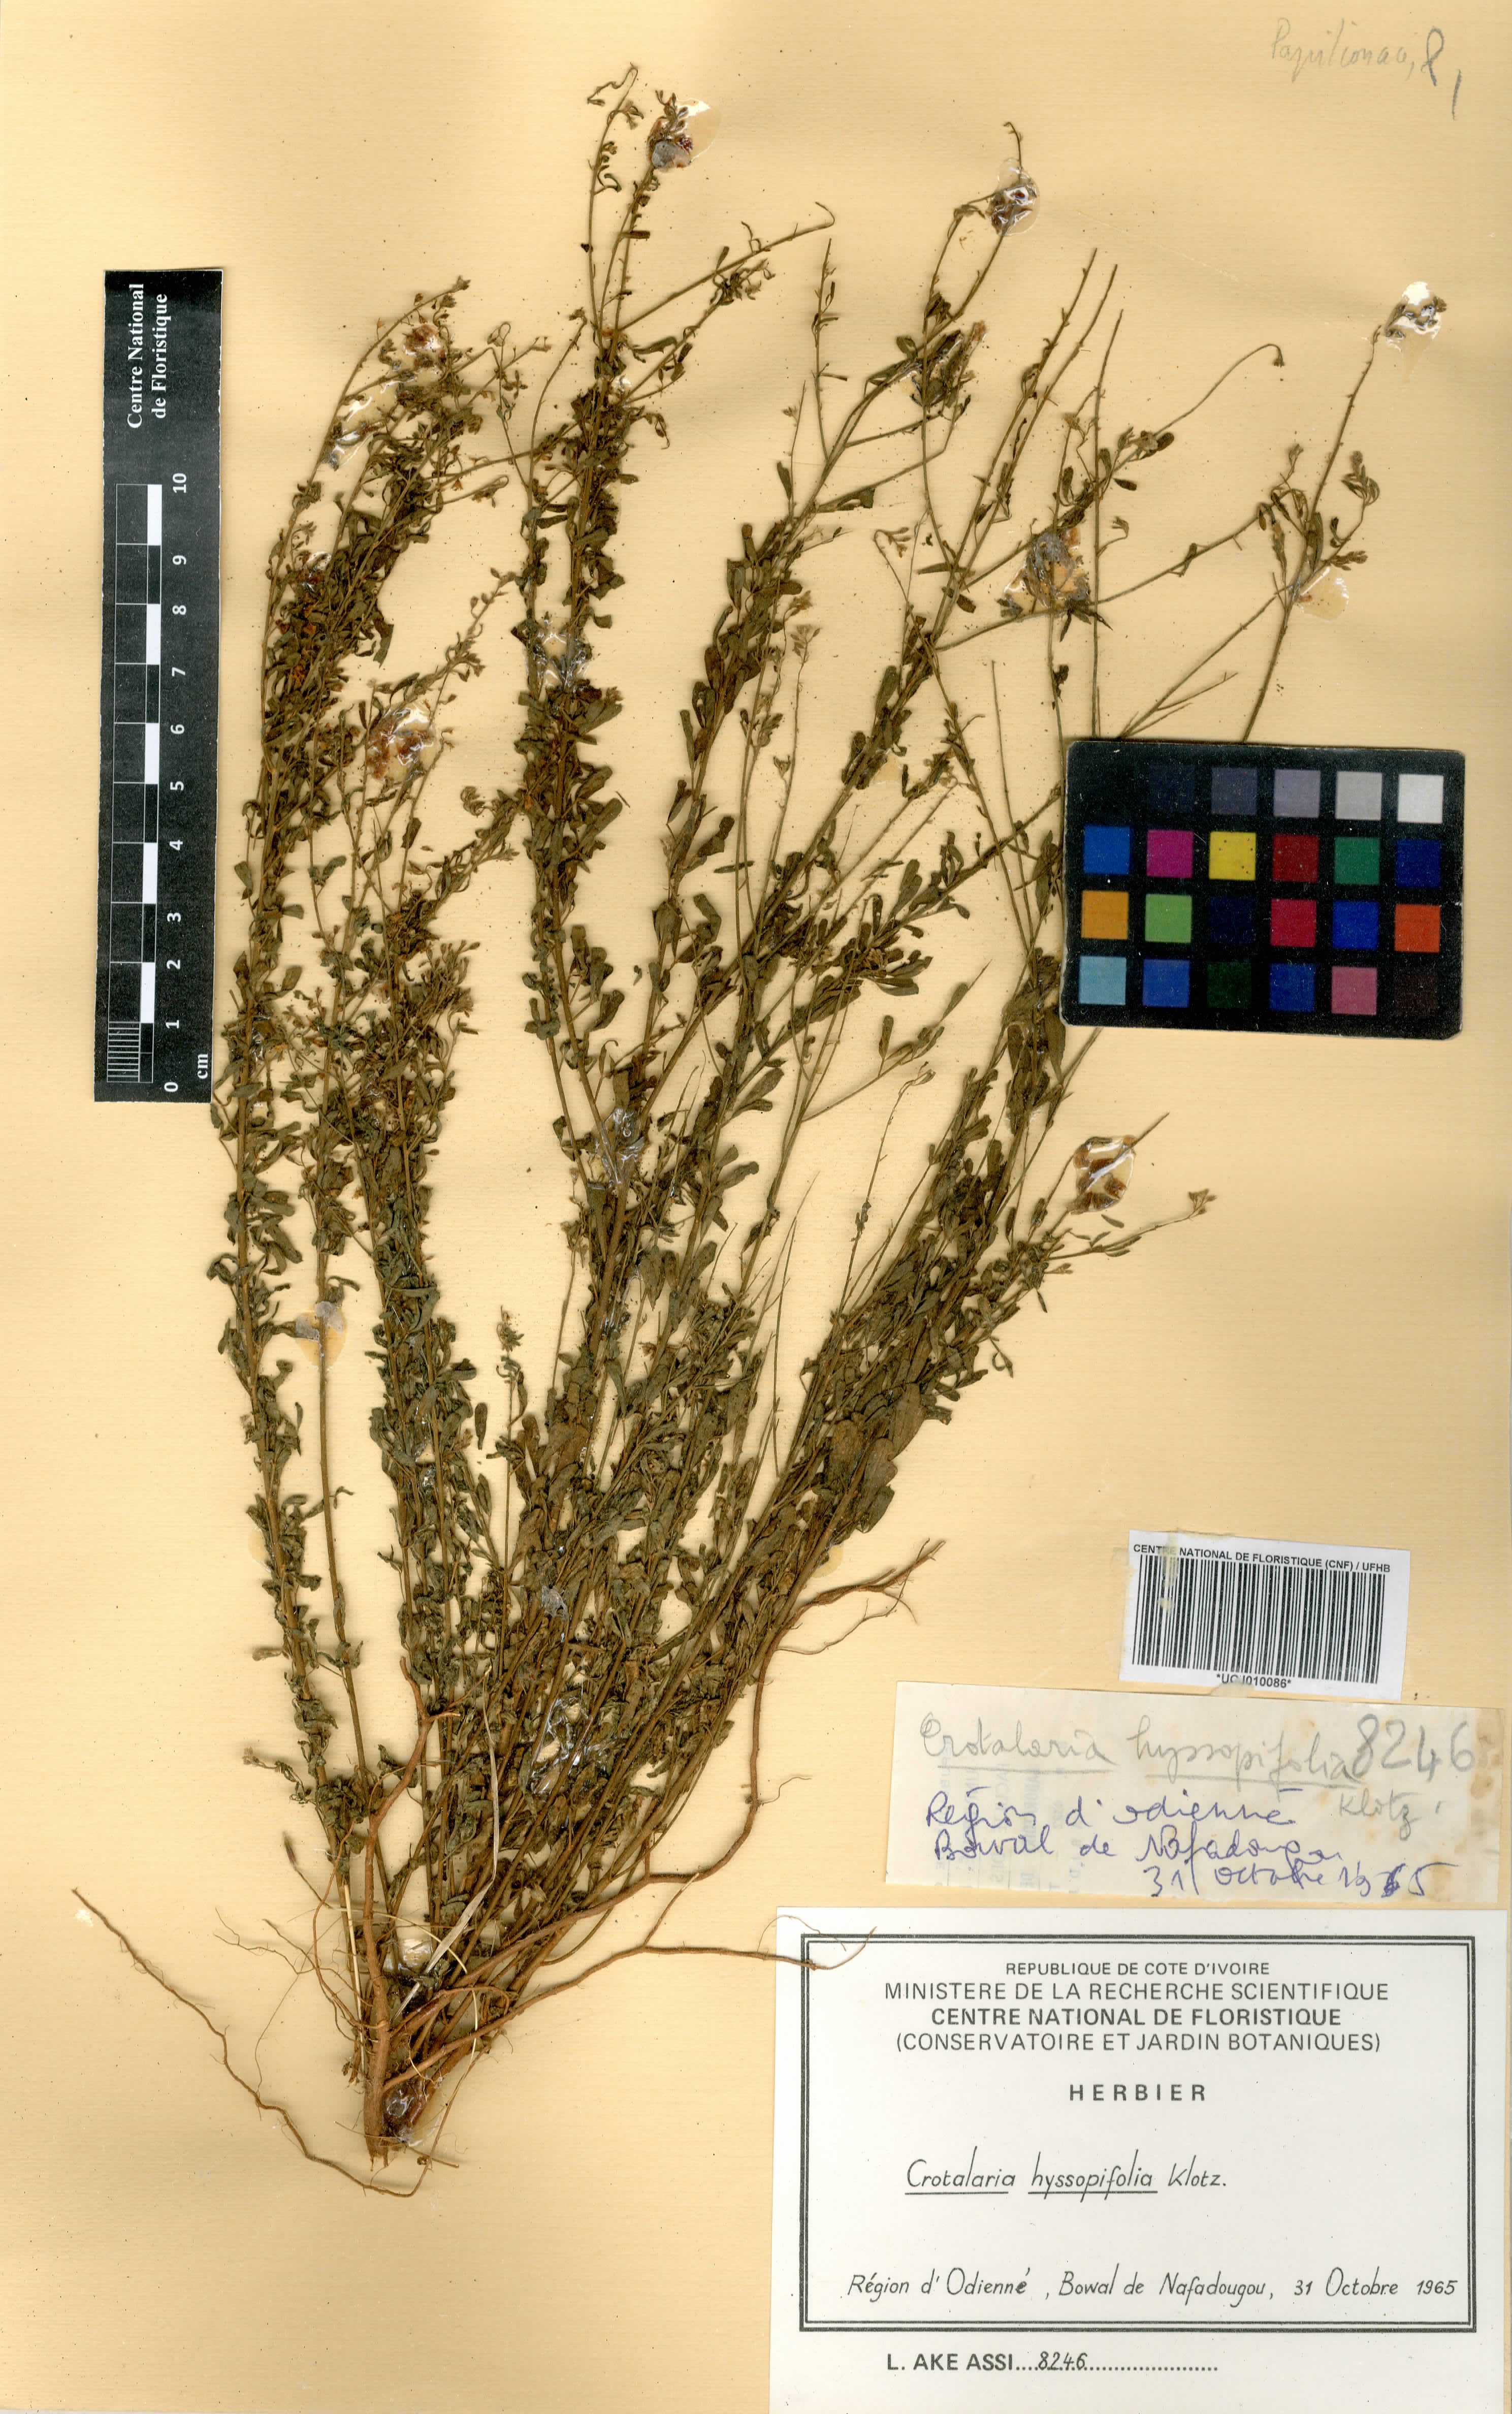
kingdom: Plantae
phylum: Tracheophyta
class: Magnoliopsida
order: Fabales
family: Fabaceae
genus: Crotalaria
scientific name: Crotalaria hyssopifolia
